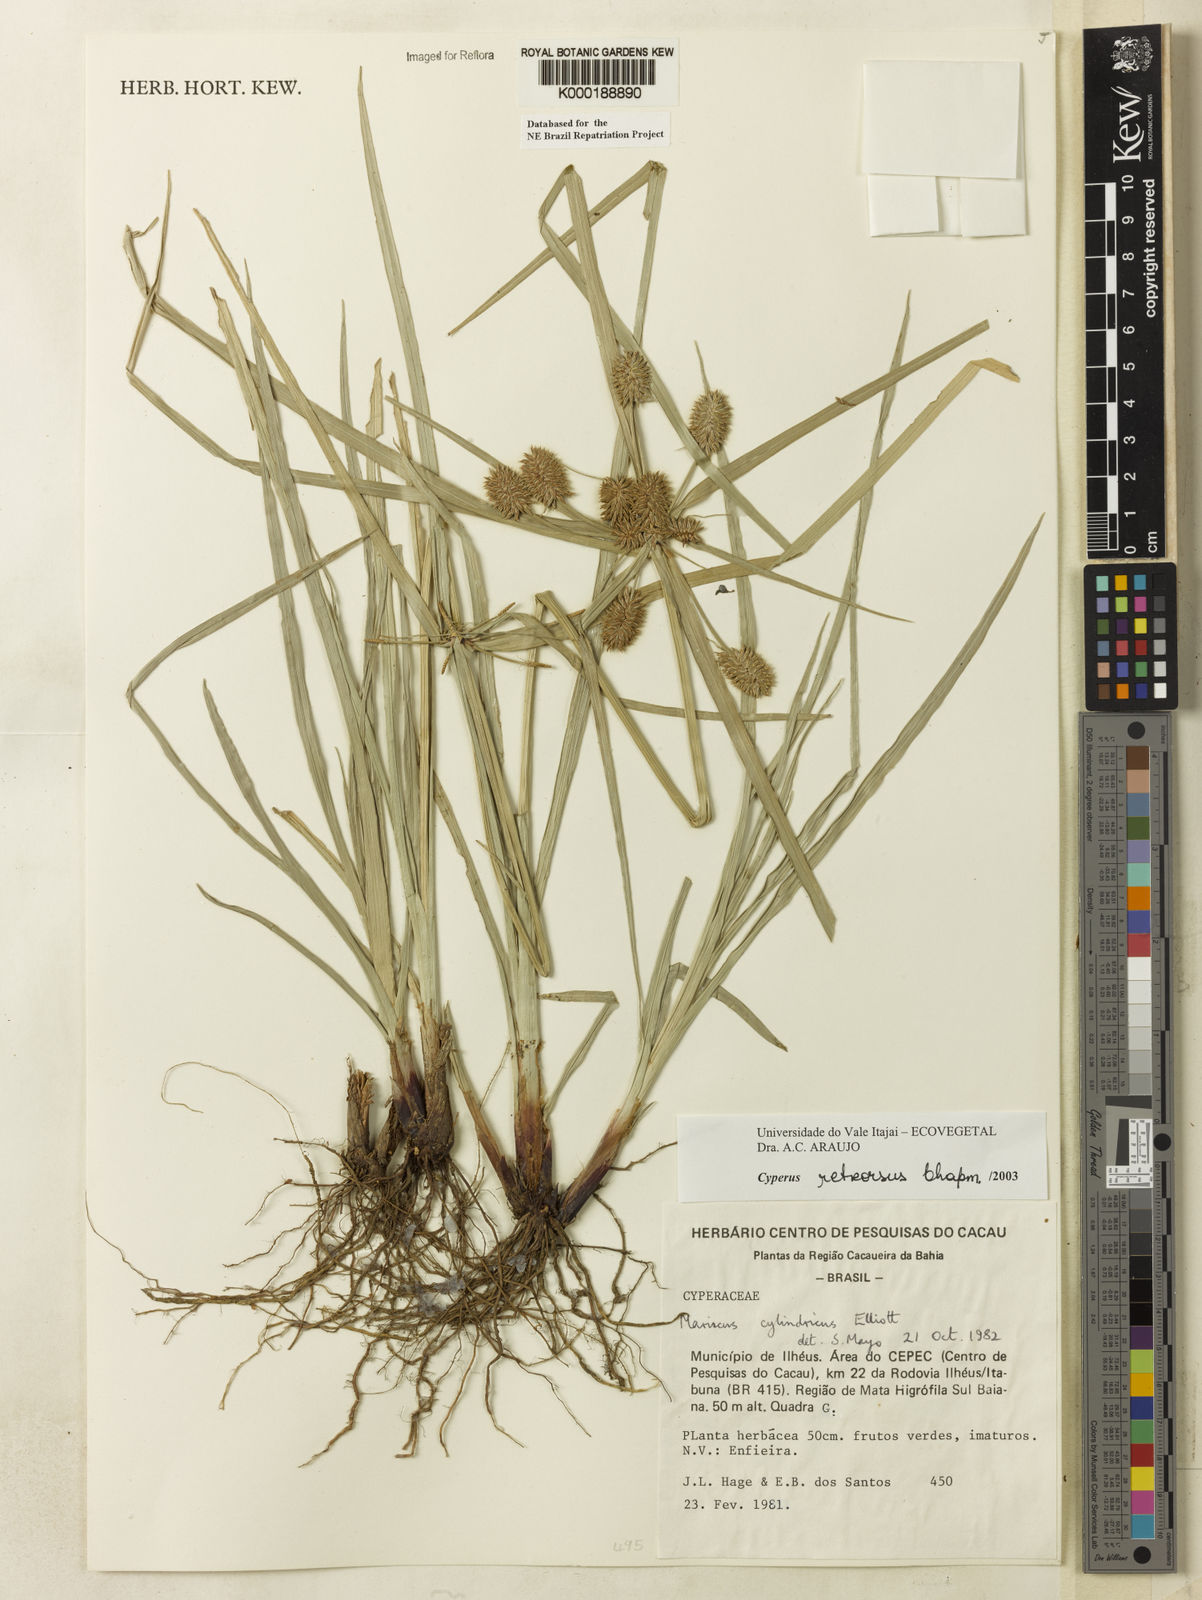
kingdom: Plantae
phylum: Tracheophyta
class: Liliopsida
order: Poales
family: Cyperaceae
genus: Cyperus
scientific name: Cyperus retrorsus
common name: Pinebarren flat sedge
